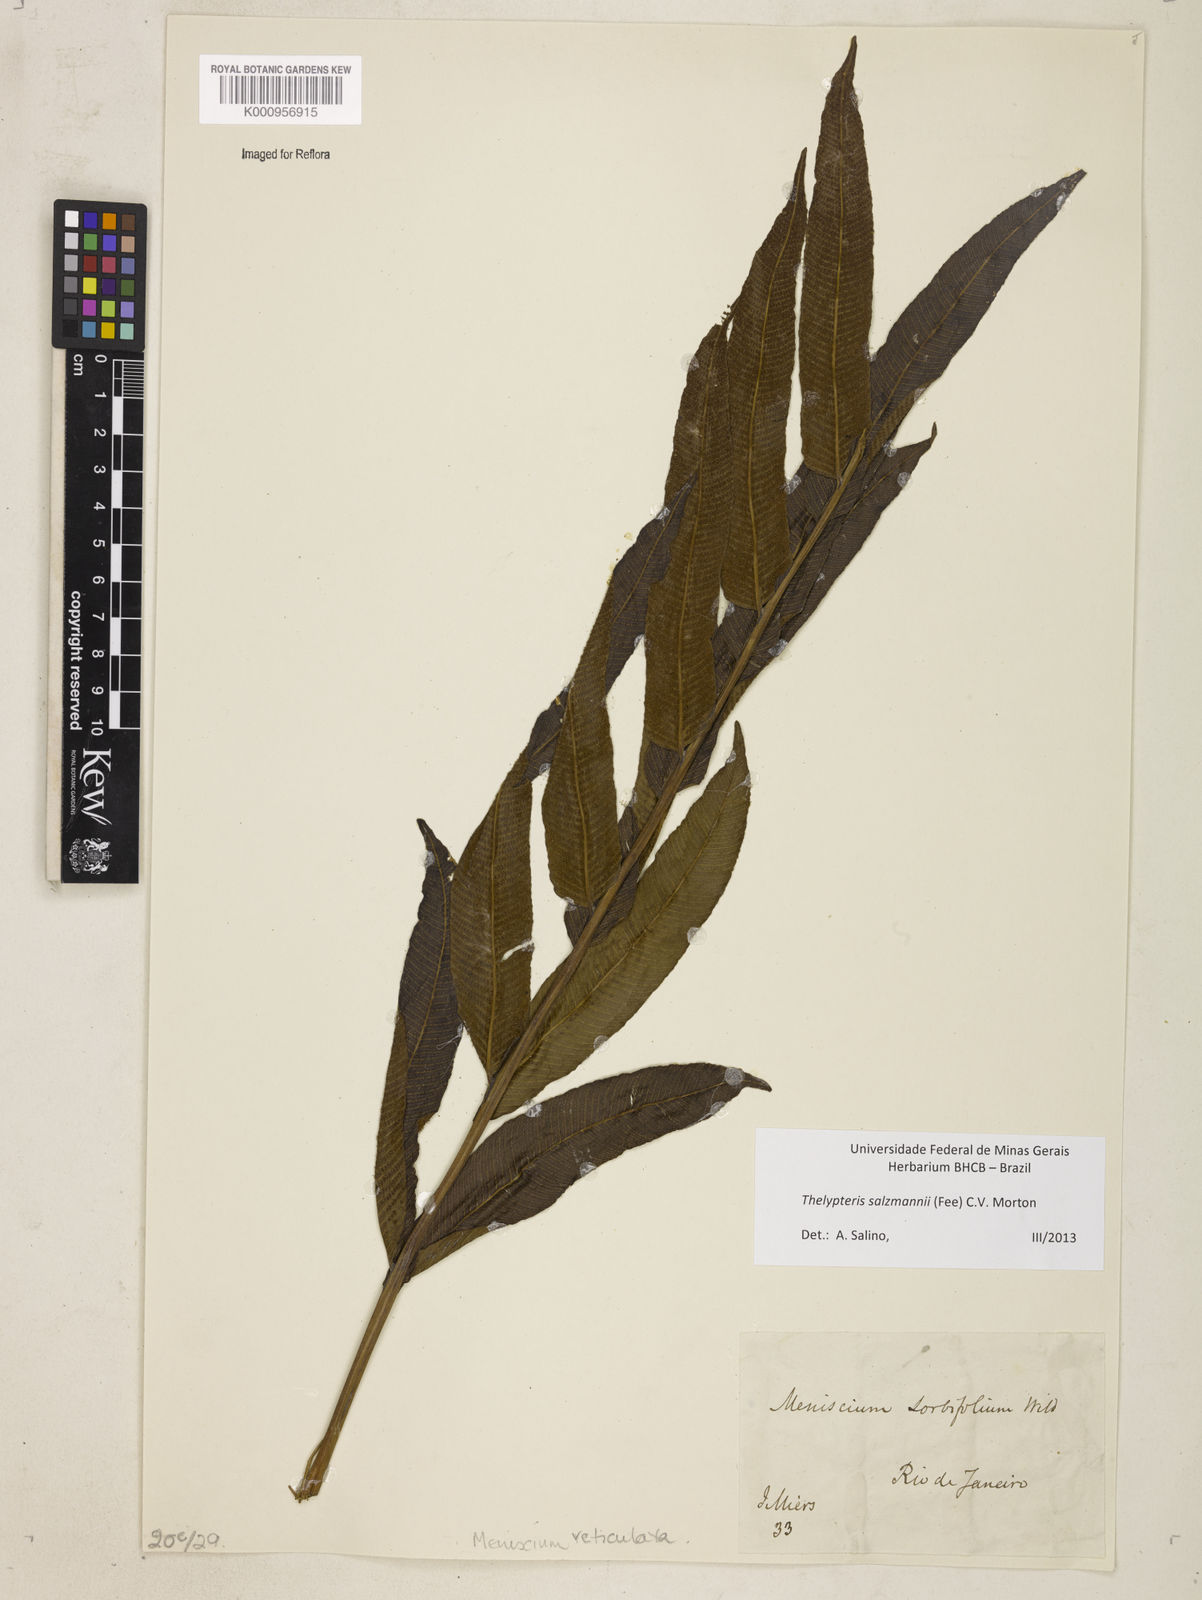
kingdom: Plantae
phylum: Tracheophyta
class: Polypodiopsida
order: Polypodiales
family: Thelypteridaceae
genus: Meniscium
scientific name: Meniscium arborescens
